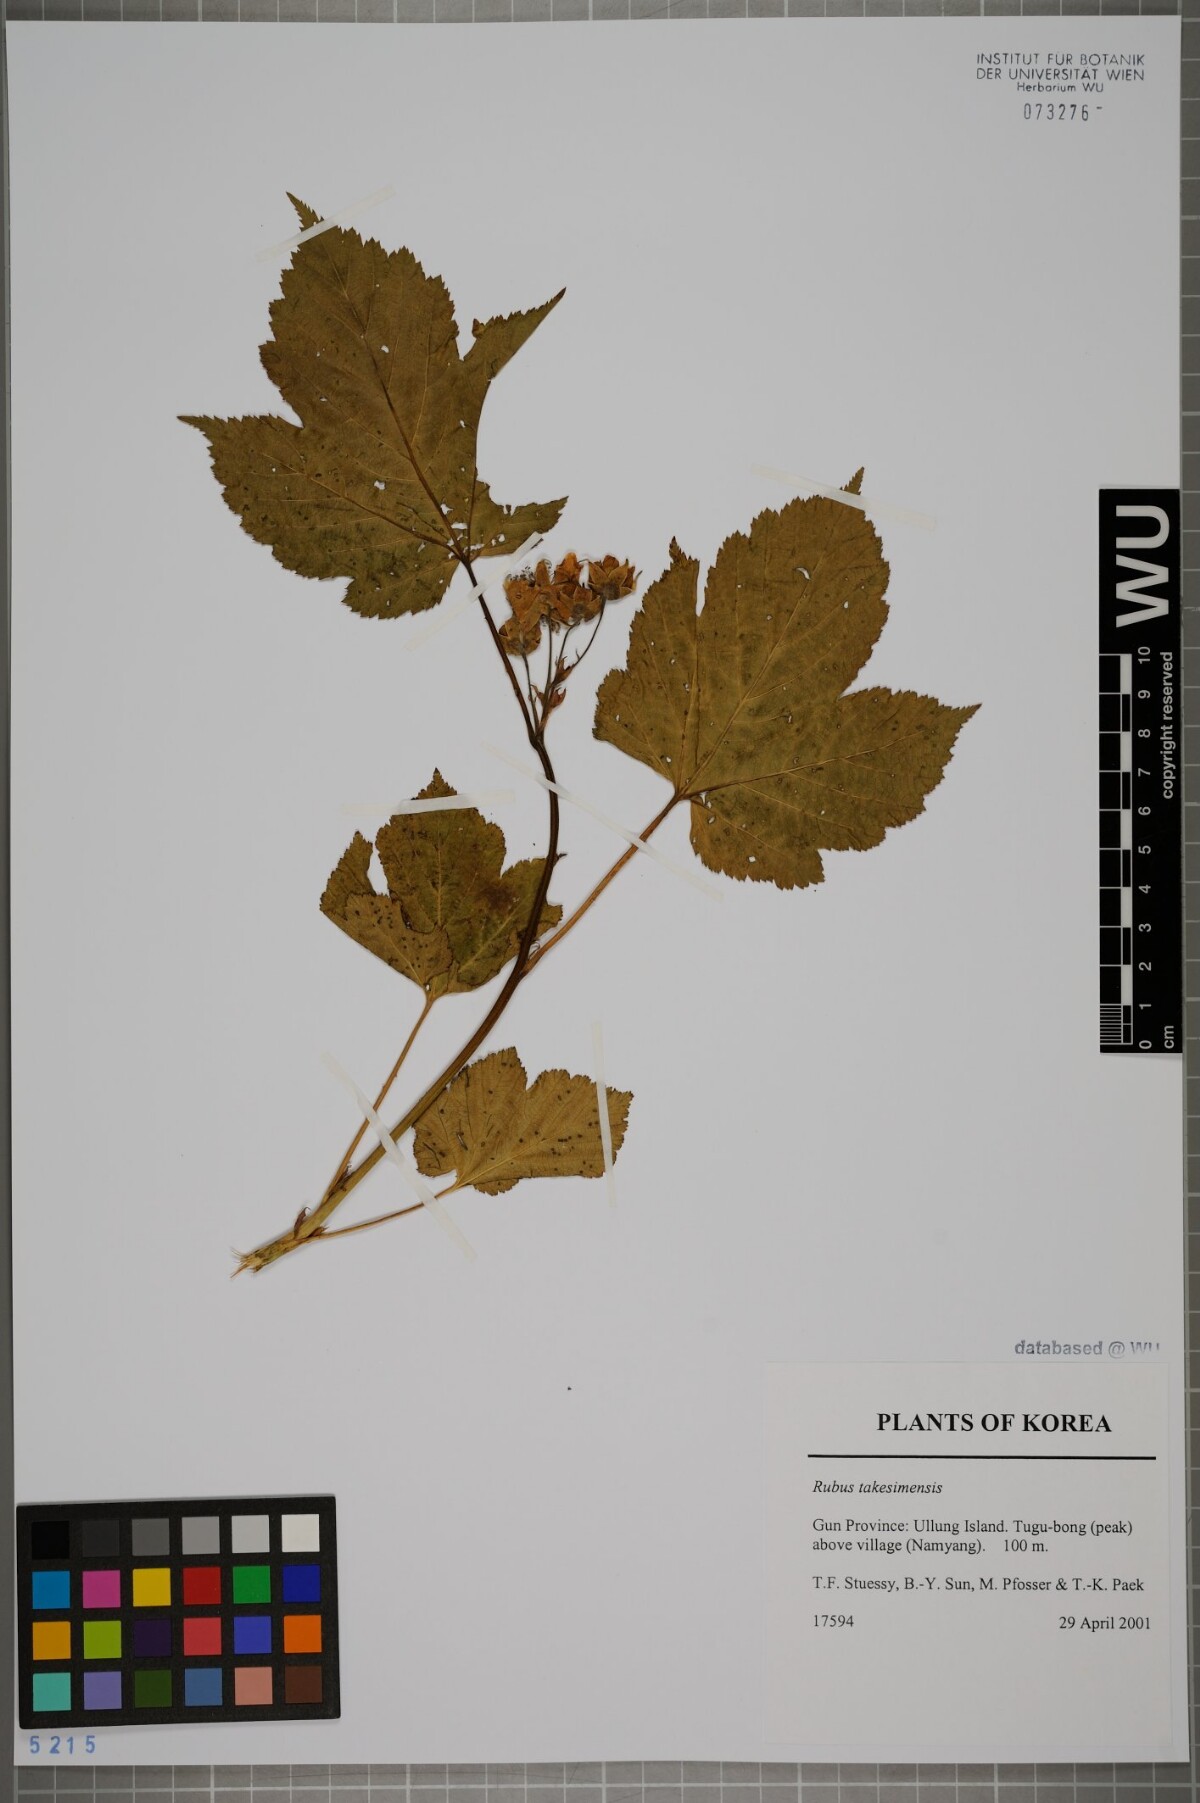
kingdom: Plantae
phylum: Tracheophyta
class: Magnoliopsida
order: Rosales
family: Rosaceae
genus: Rubus
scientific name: Rubus crataegifolius
